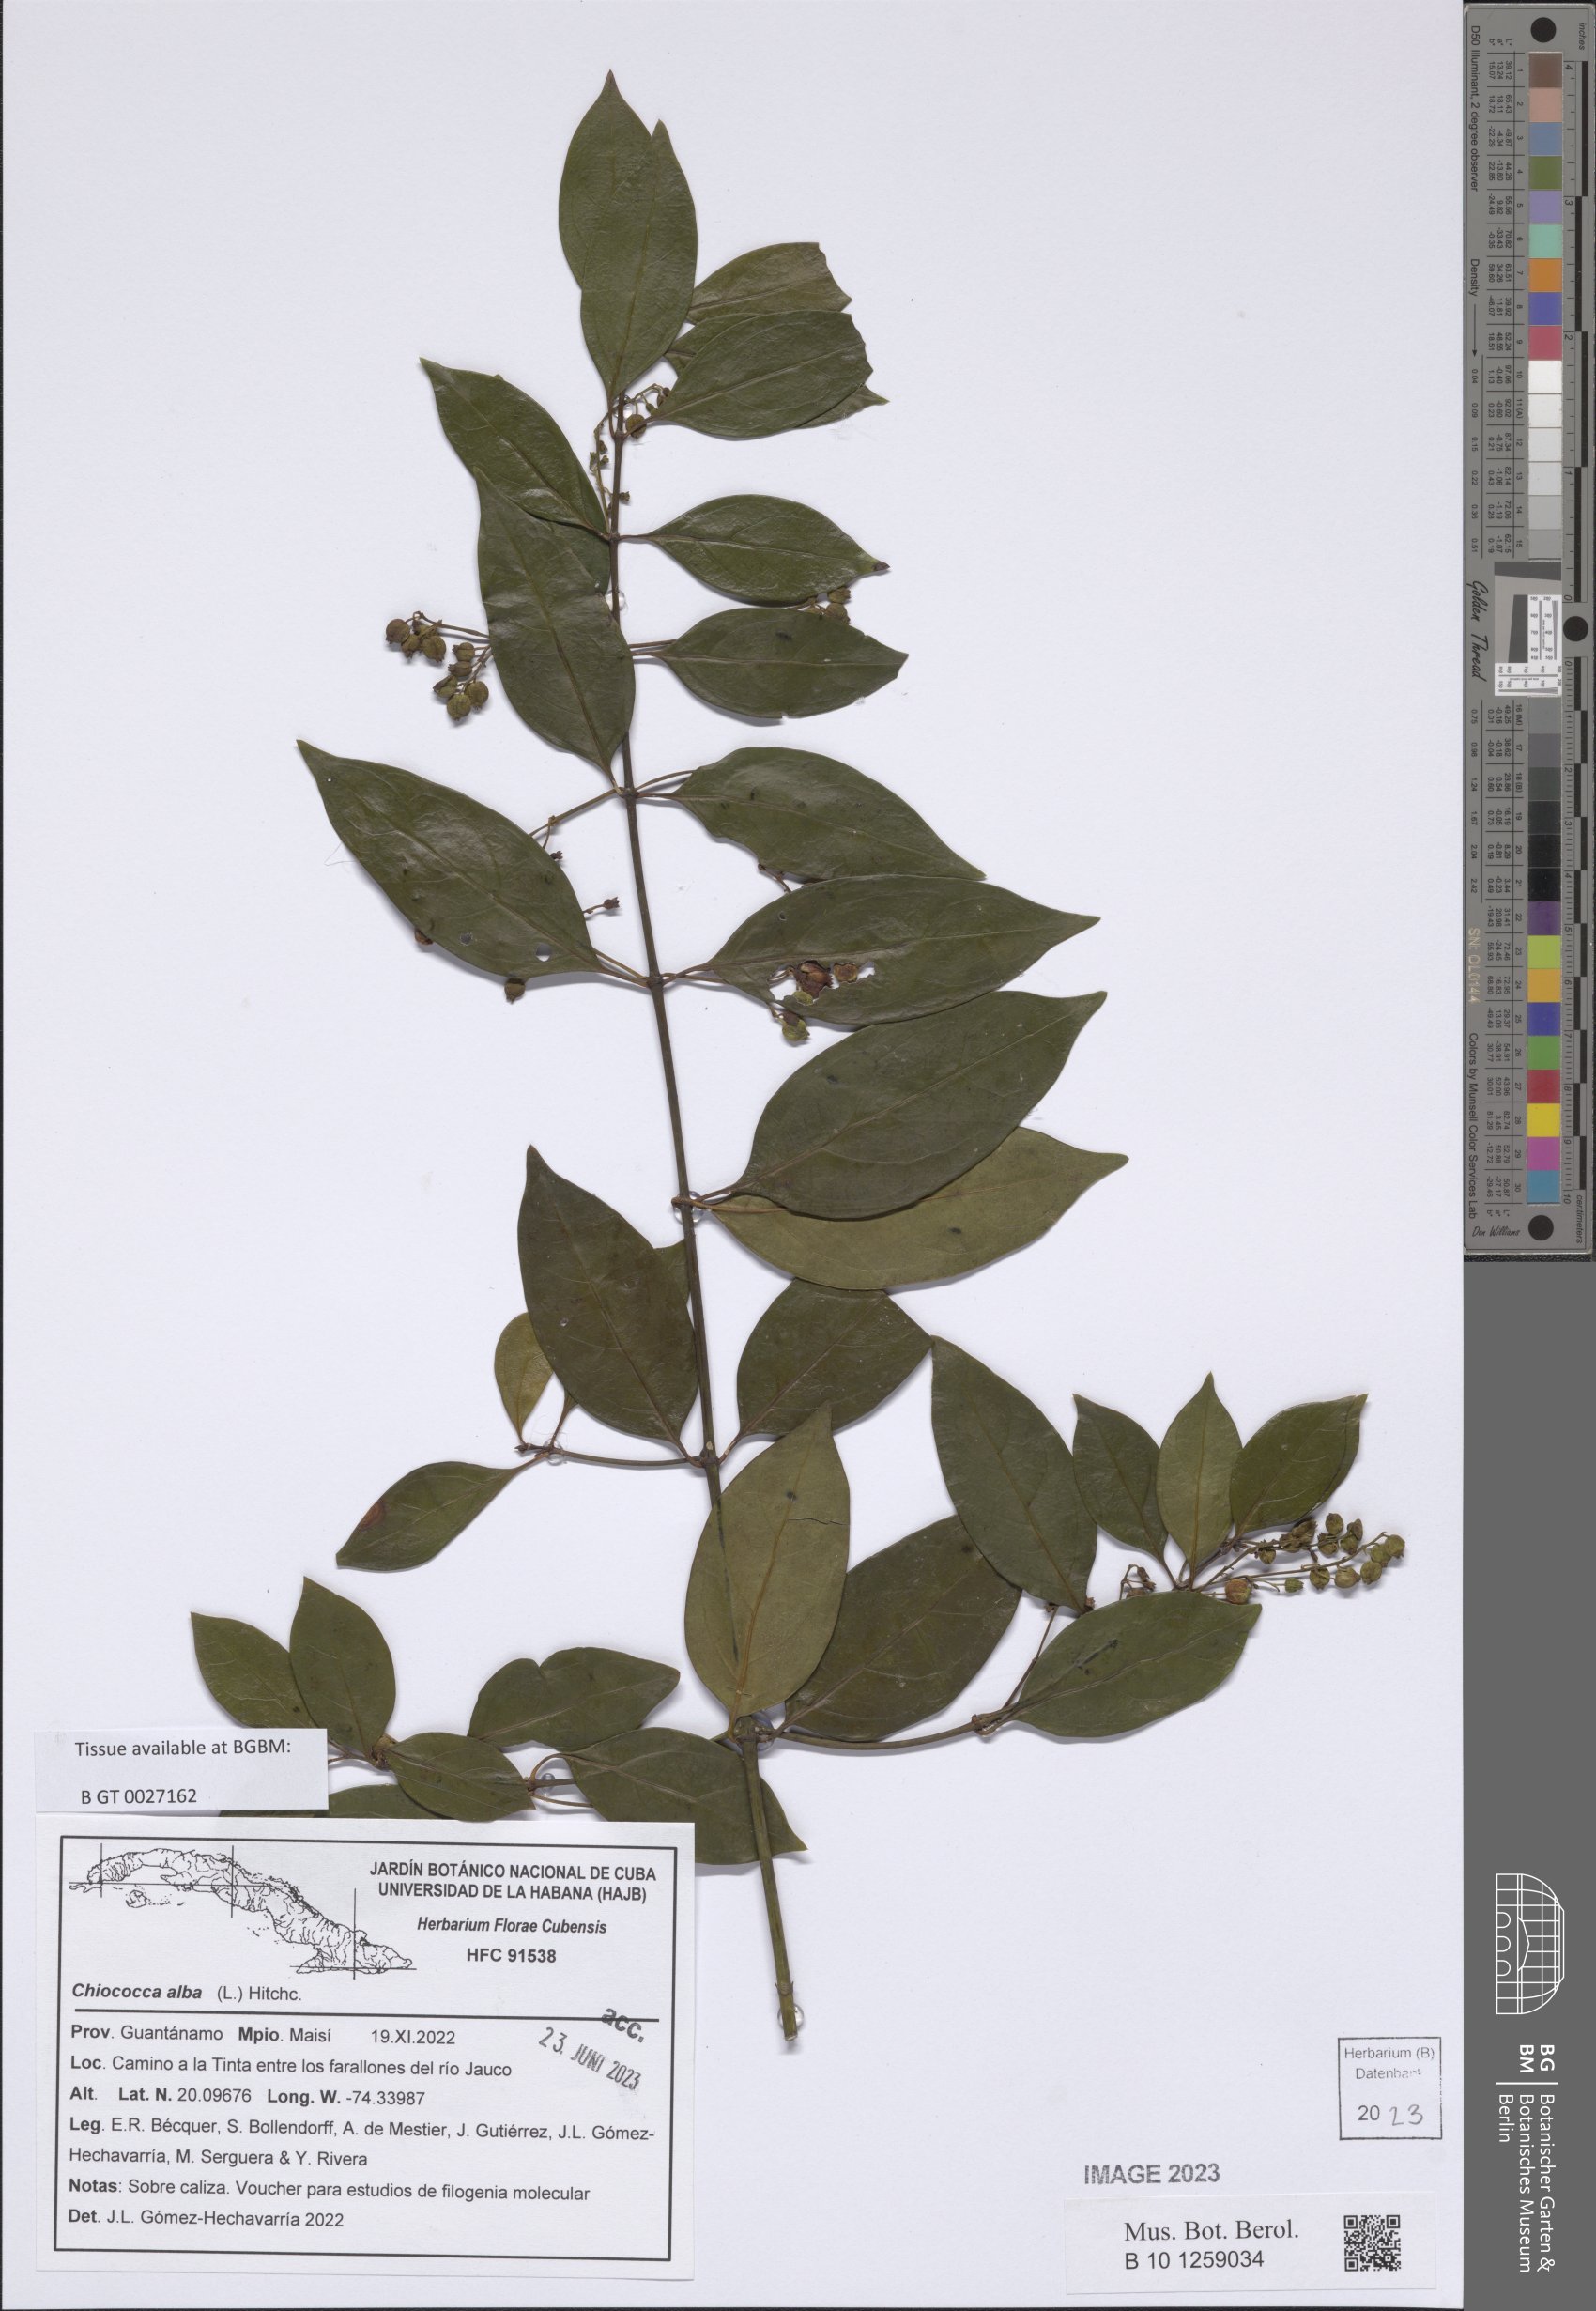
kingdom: Plantae
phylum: Tracheophyta
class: Magnoliopsida
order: Gentianales
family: Rubiaceae
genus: Chiococca
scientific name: Chiococca alba
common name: Snowberry
